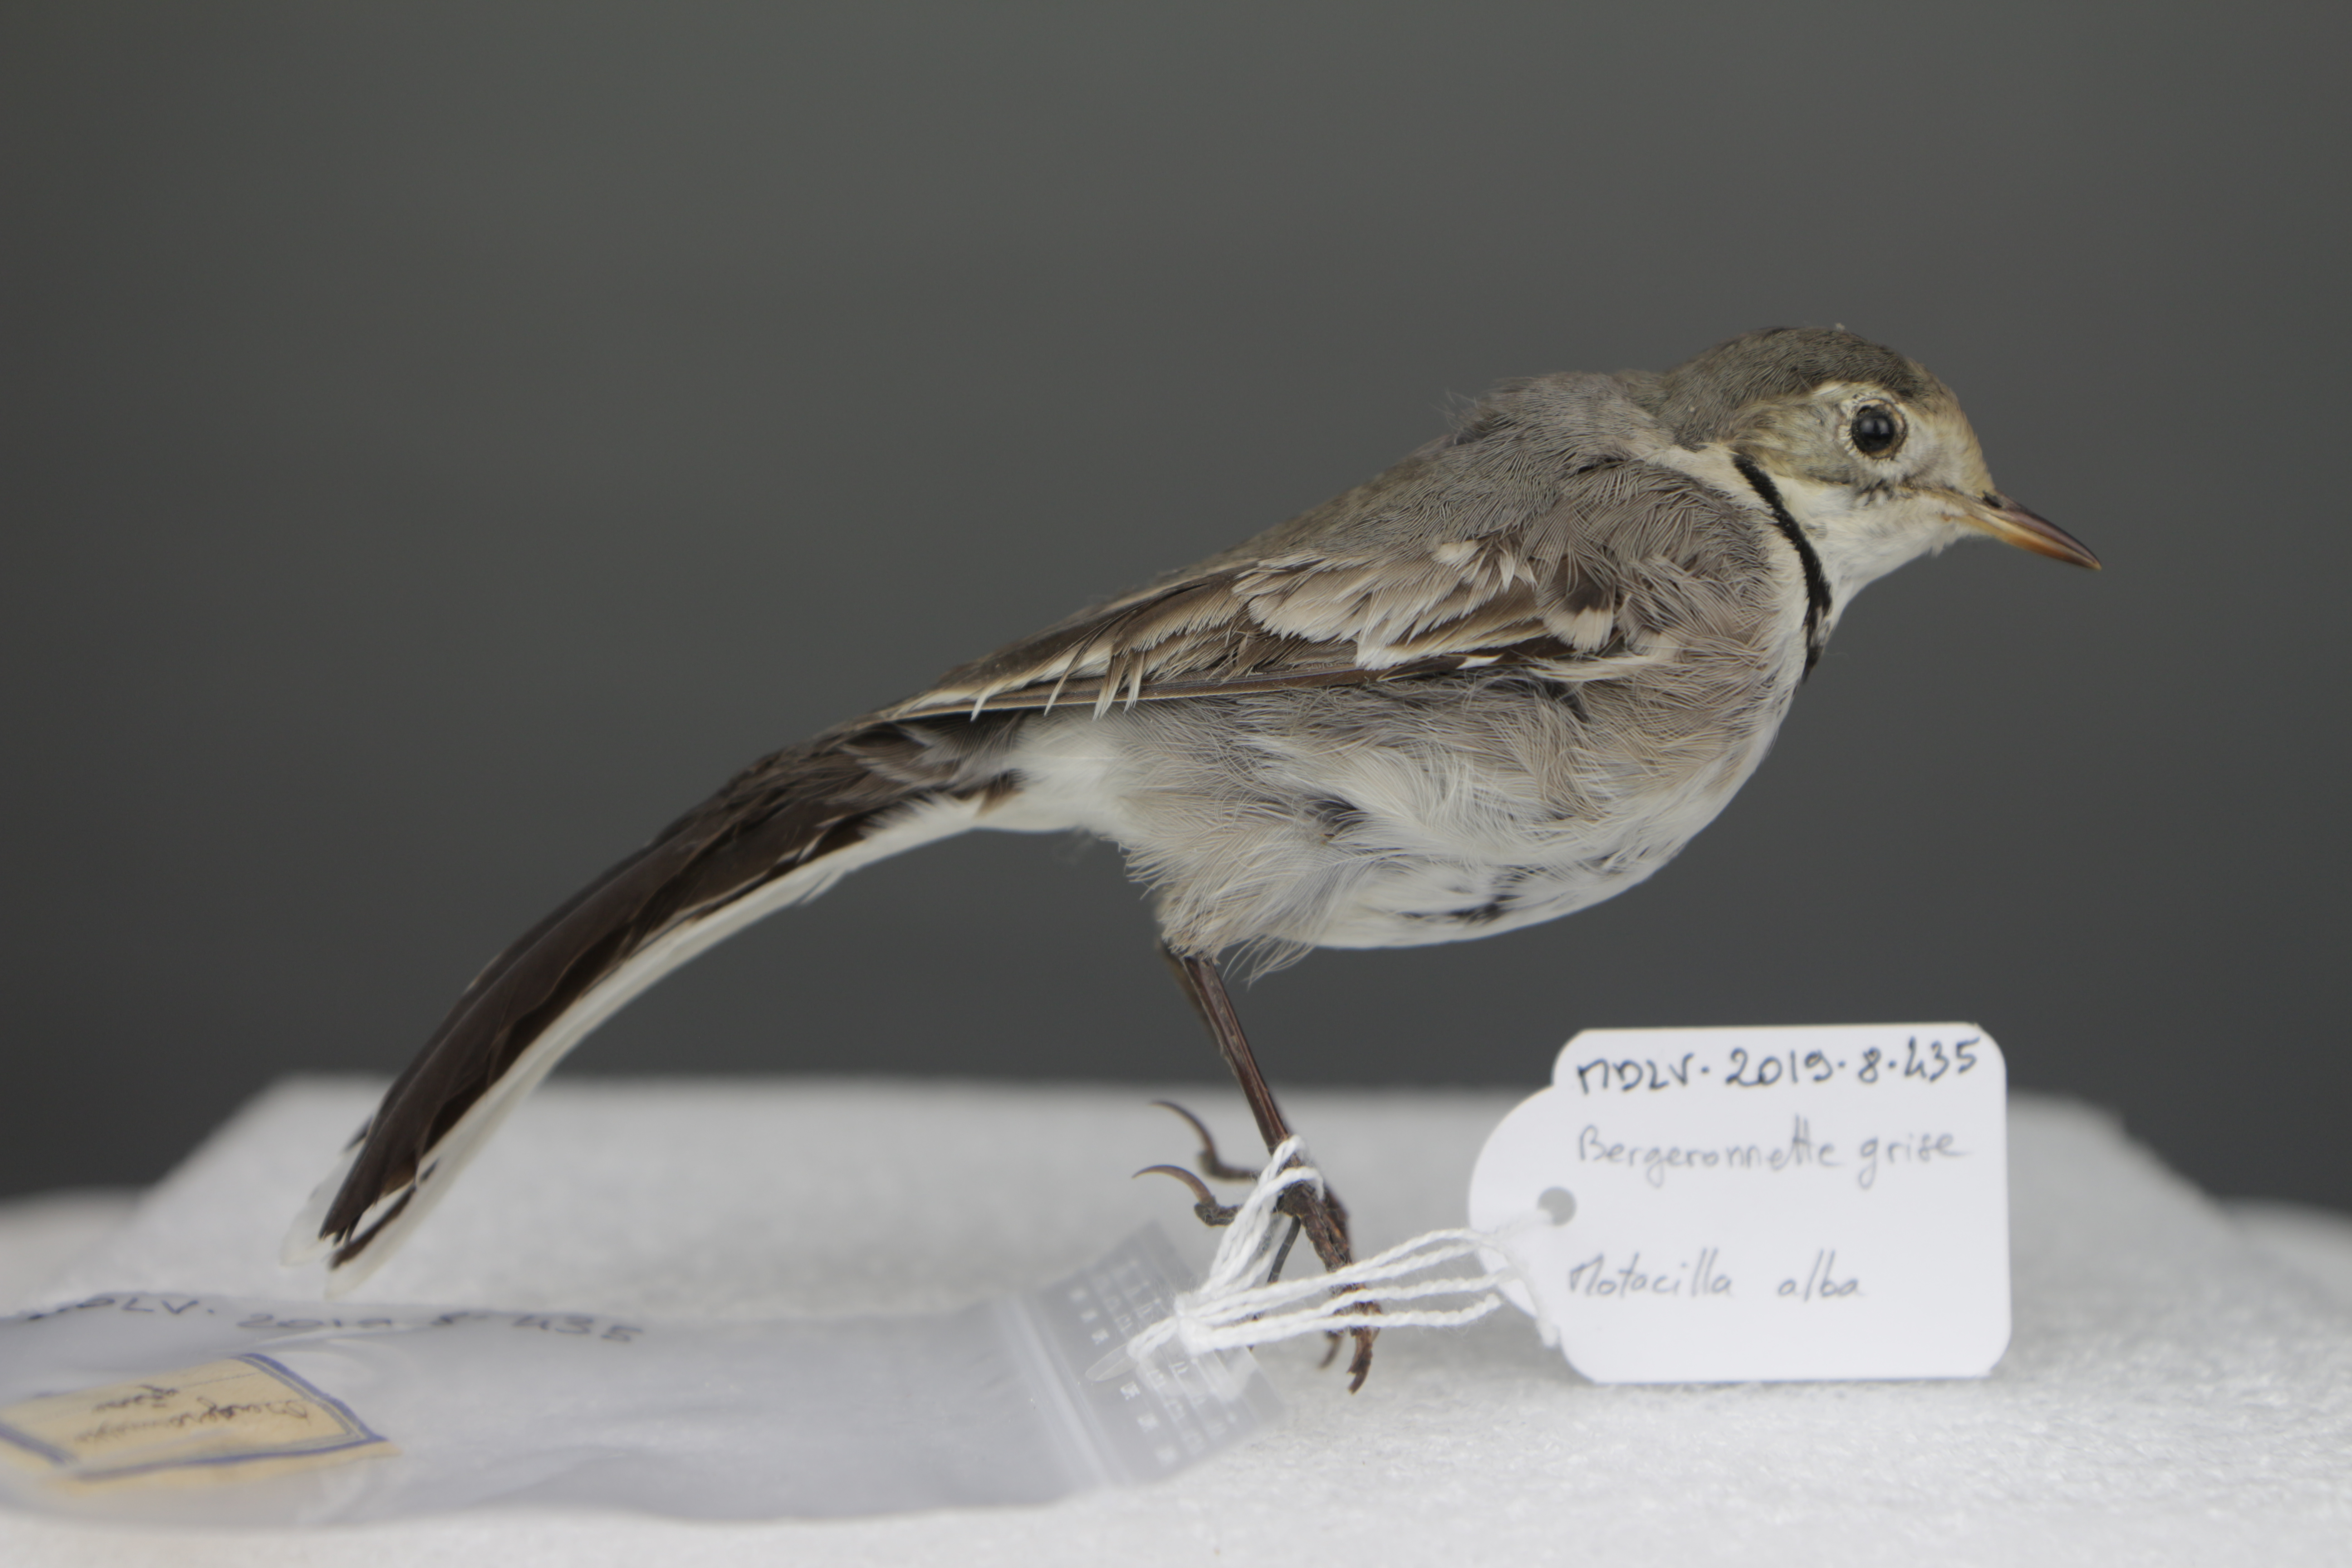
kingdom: Animalia
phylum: Chordata
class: Aves
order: Passeriformes
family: Motacillidae
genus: Motacilla
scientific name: Motacilla alba
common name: White wagtail
